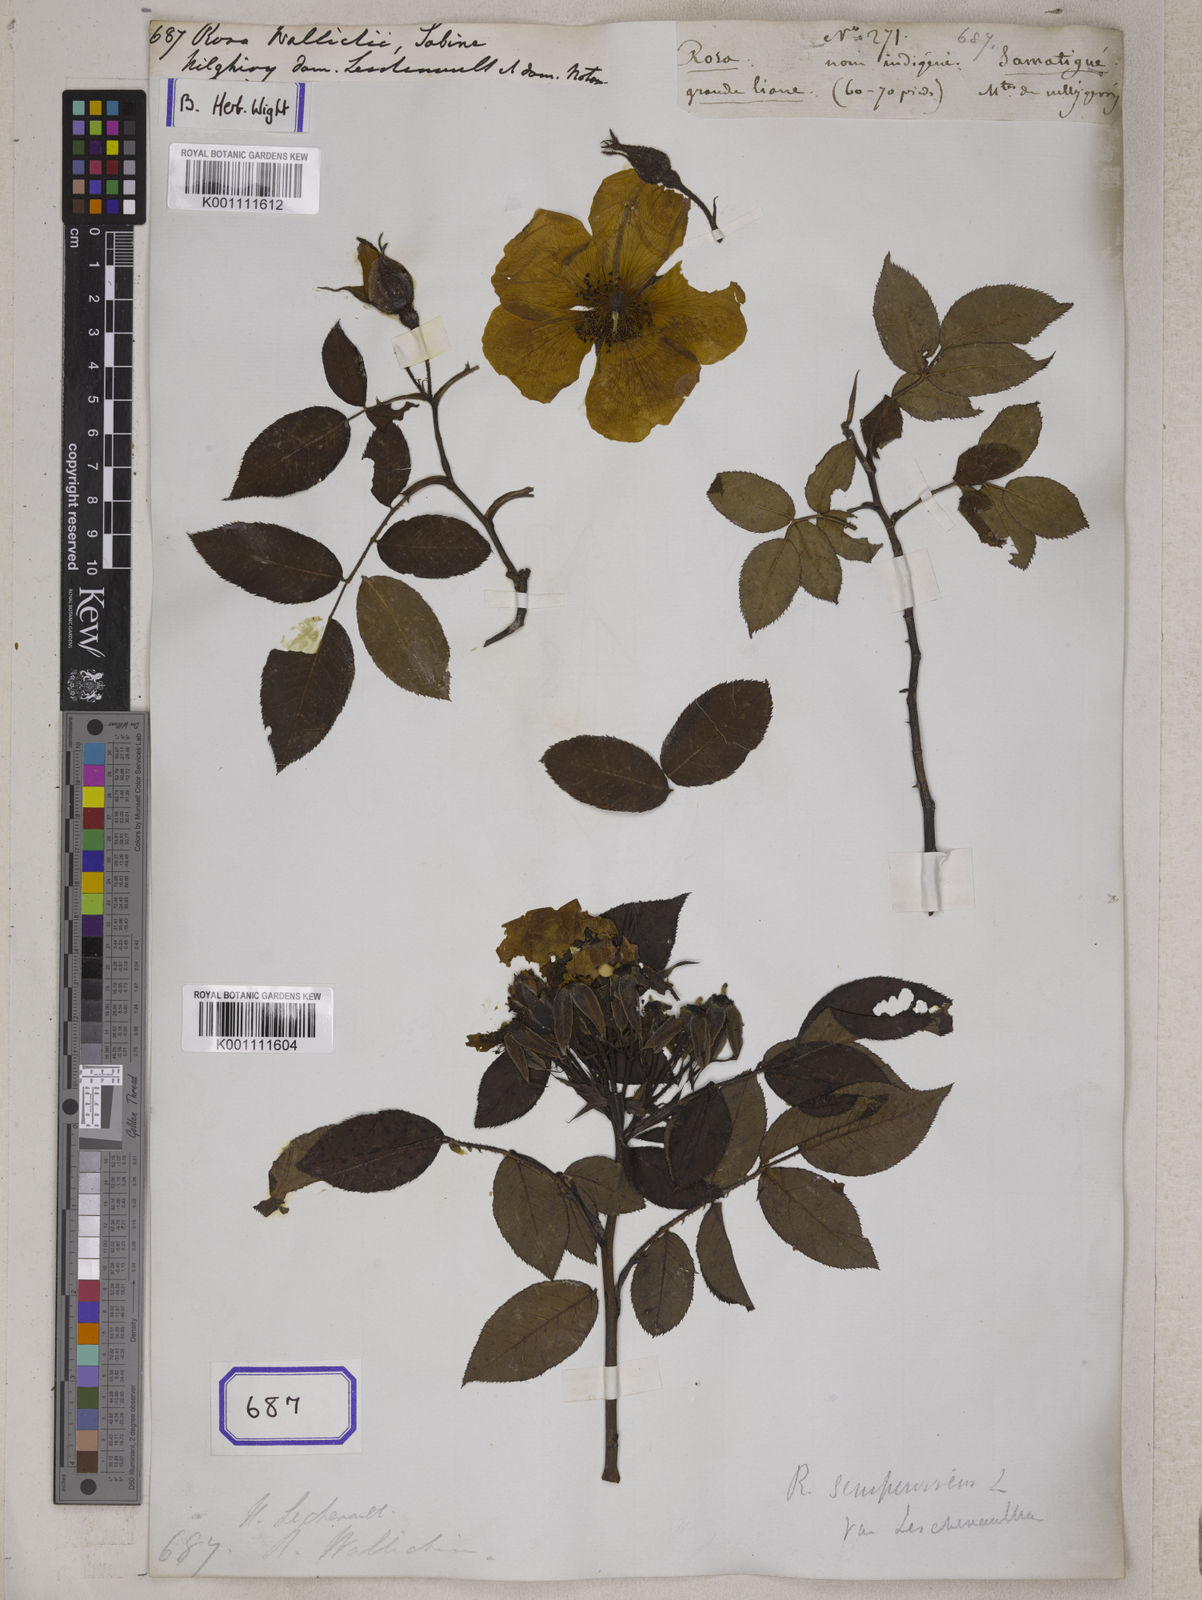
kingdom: Plantae
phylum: Tracheophyta
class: Magnoliopsida
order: Rosales
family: Rosaceae
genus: Rosa
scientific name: Rosa
